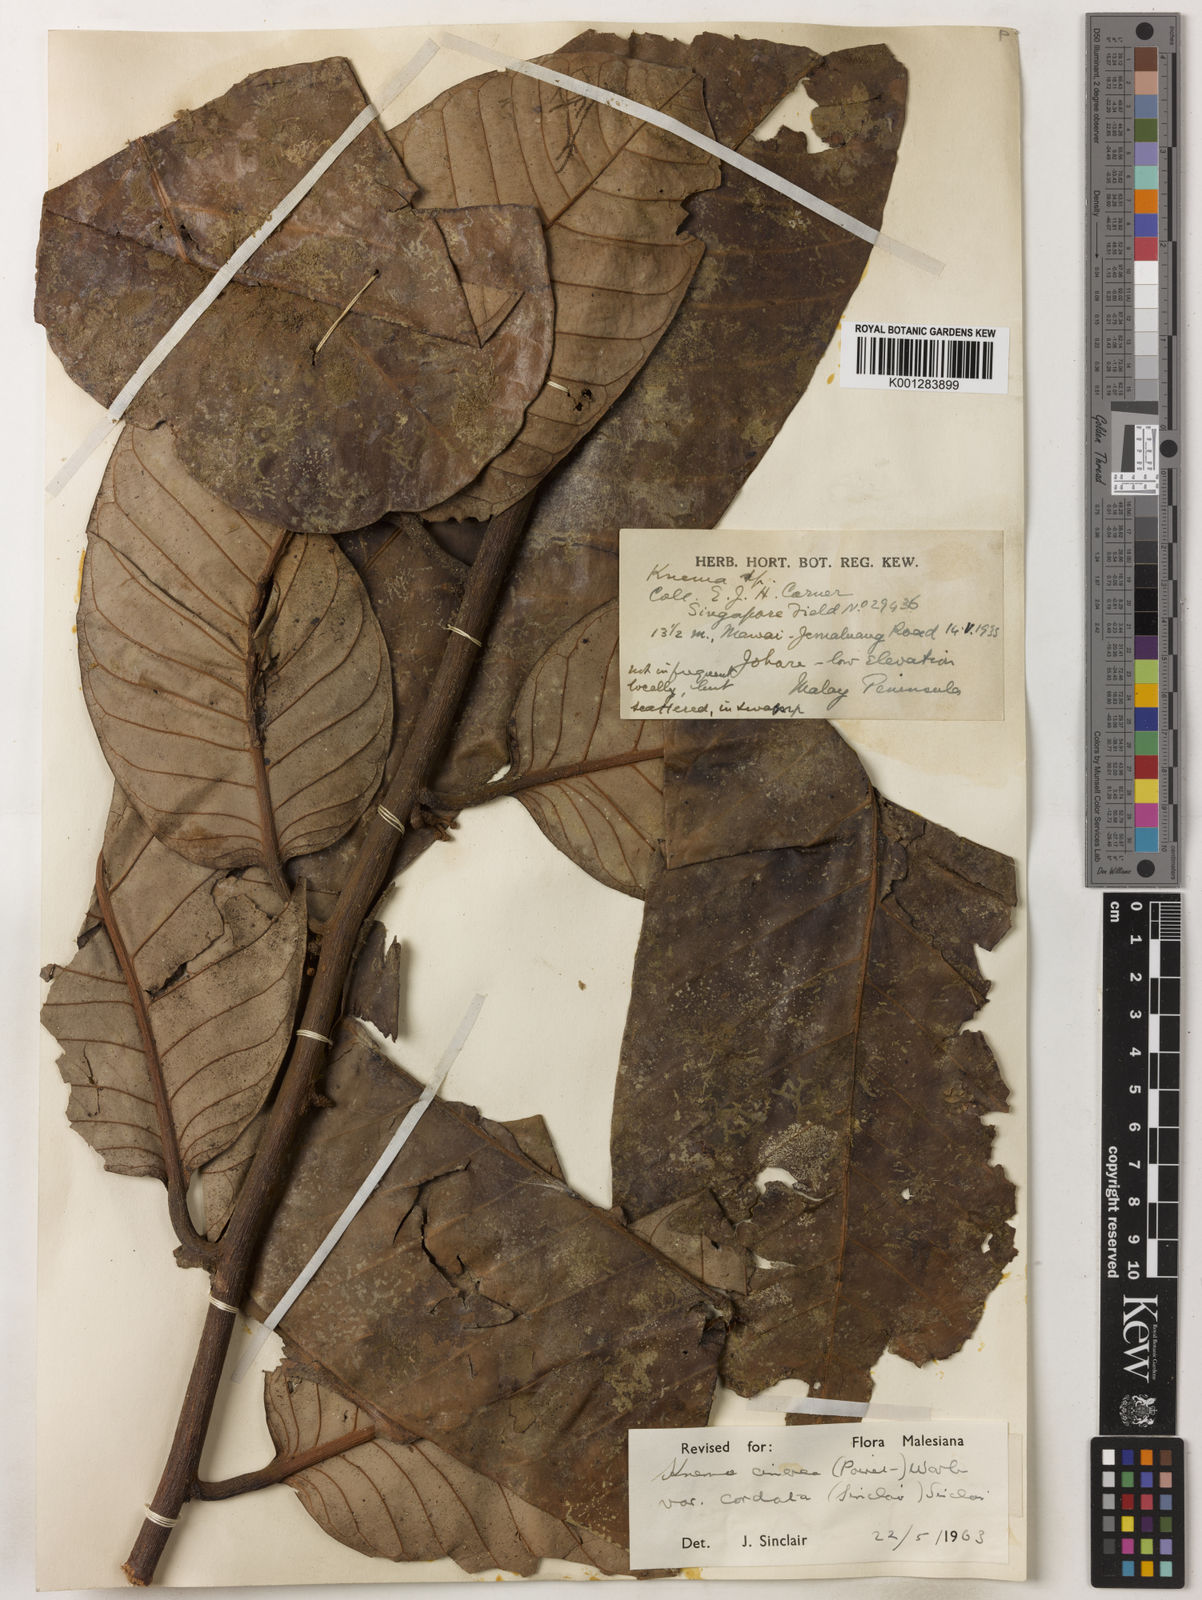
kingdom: Plantae
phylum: Tracheophyta
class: Magnoliopsida
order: Magnoliales
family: Myristicaceae
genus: Knema
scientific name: Knema
